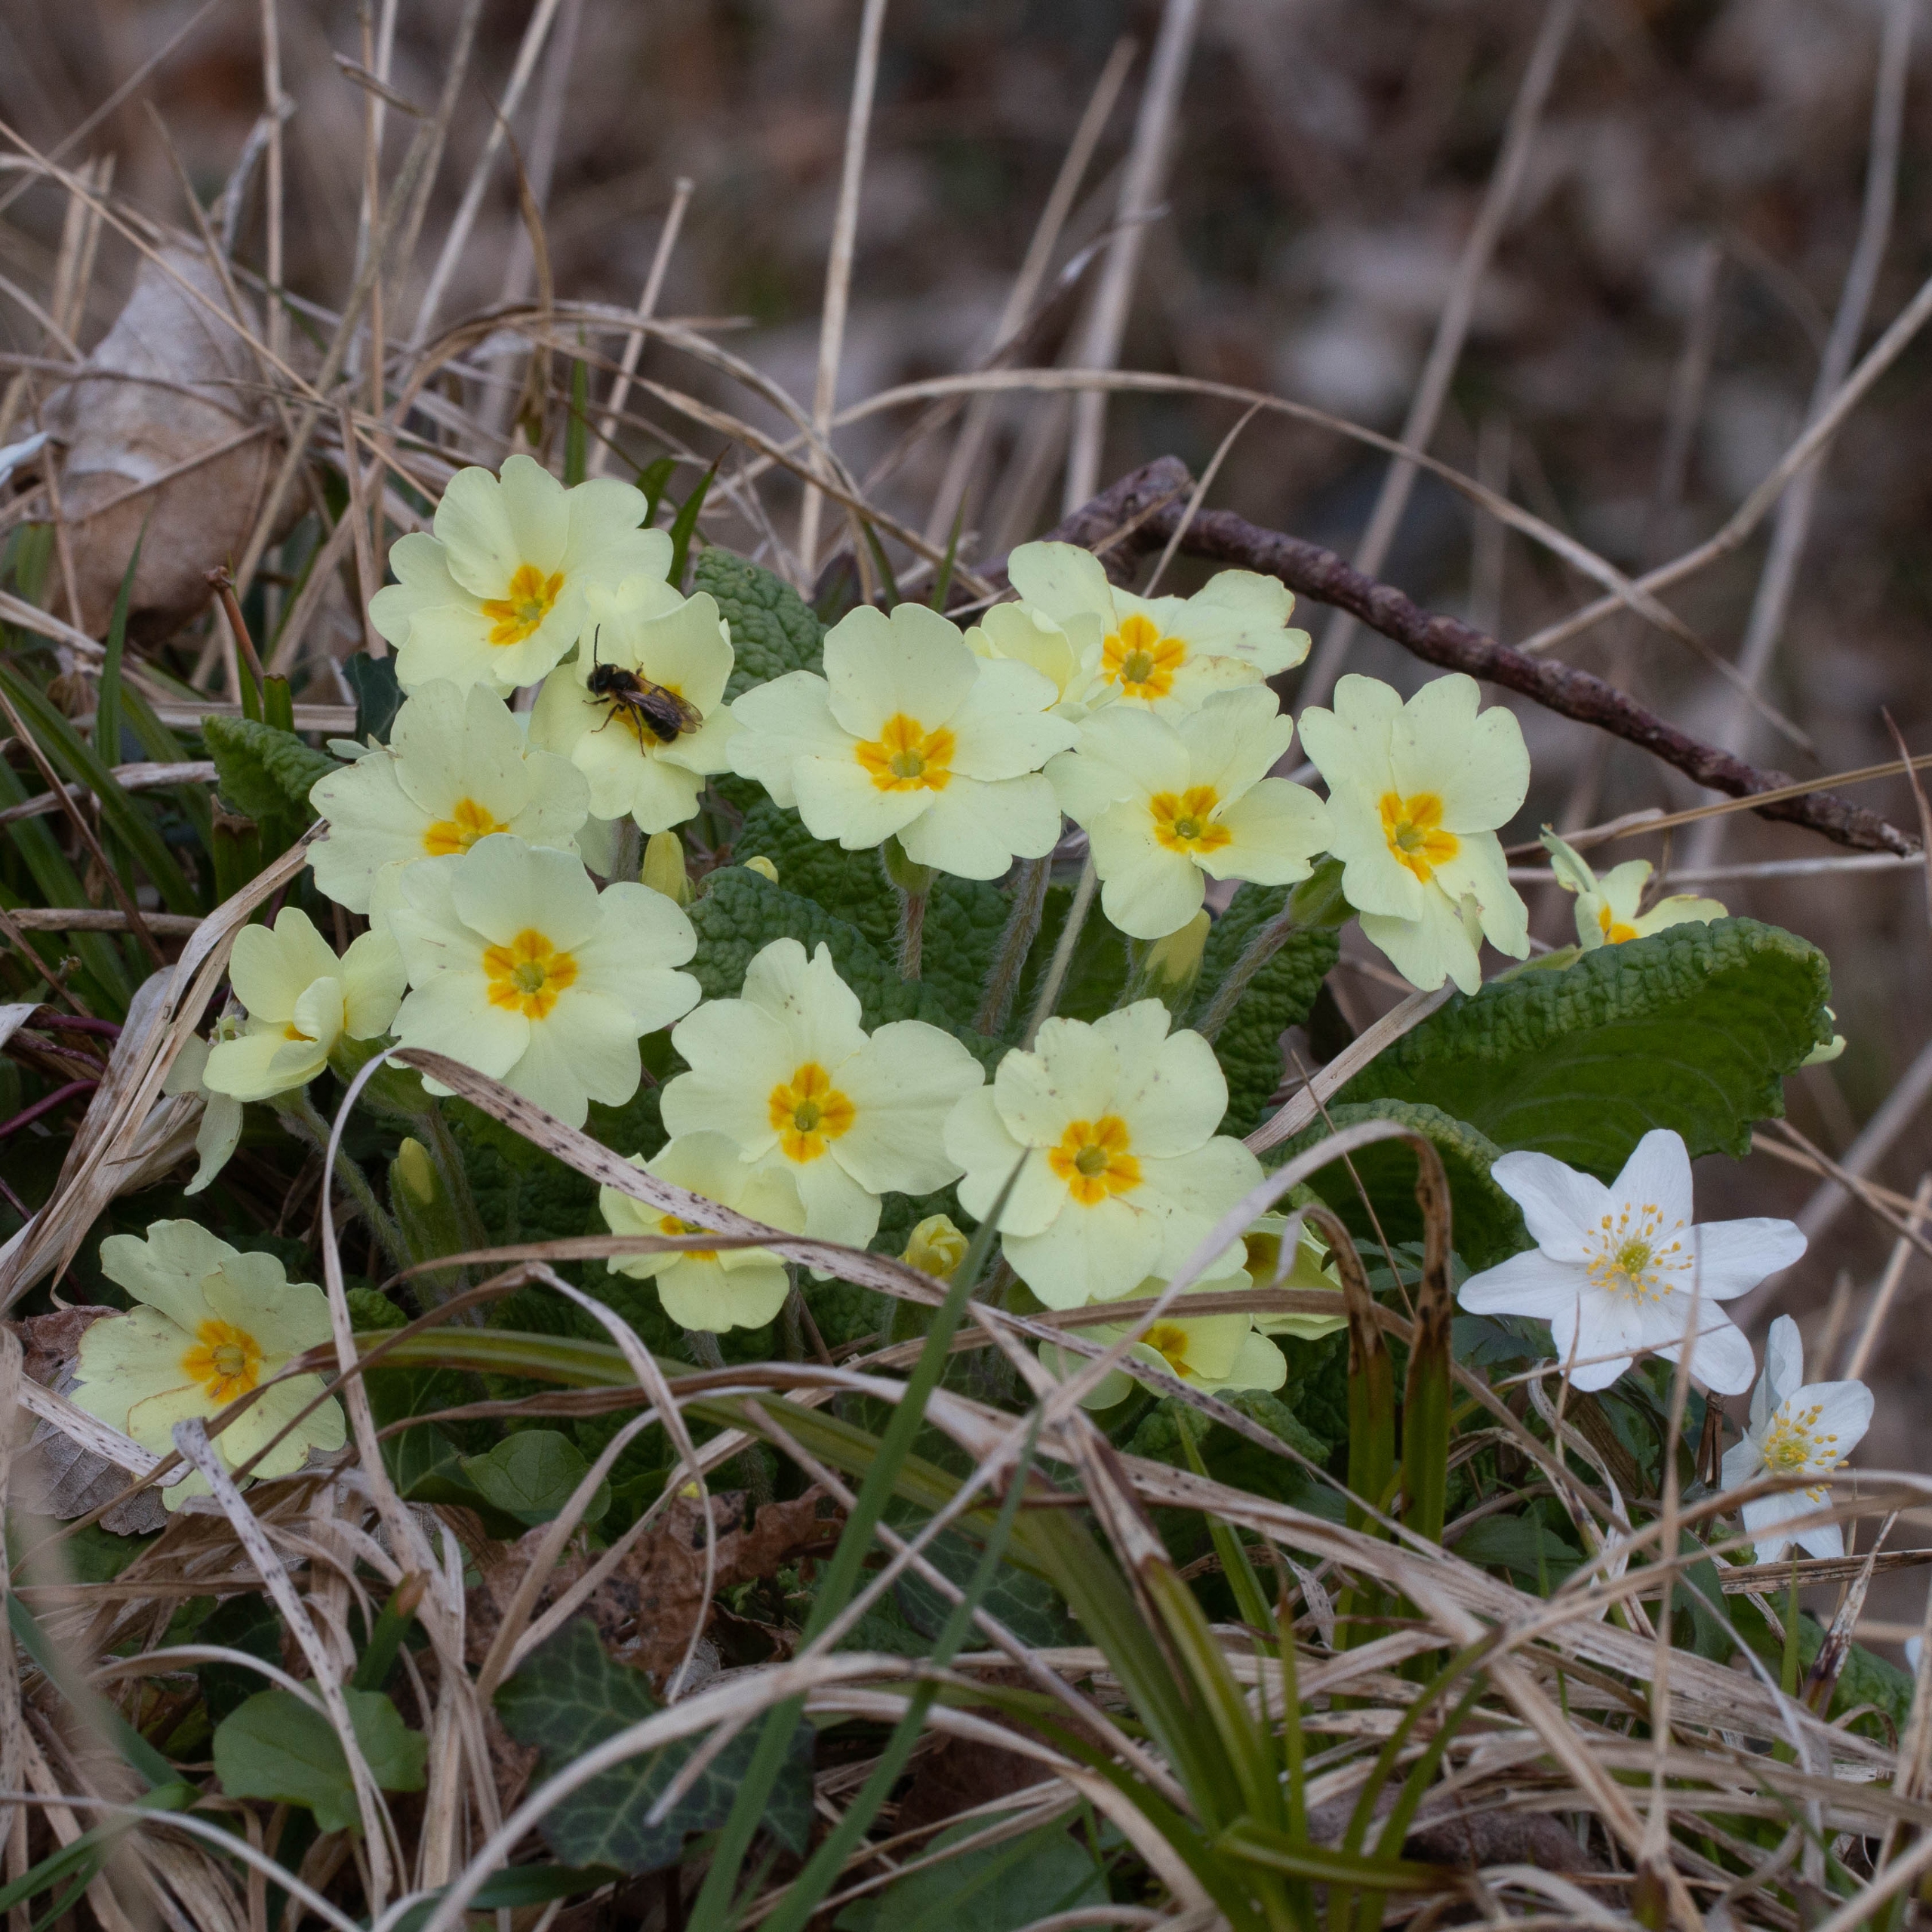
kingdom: Plantae
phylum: Tracheophyta
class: Magnoliopsida
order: Ericales
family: Primulaceae
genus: Primula
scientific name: Primula vulgaris
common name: Storblomstret kodriver
